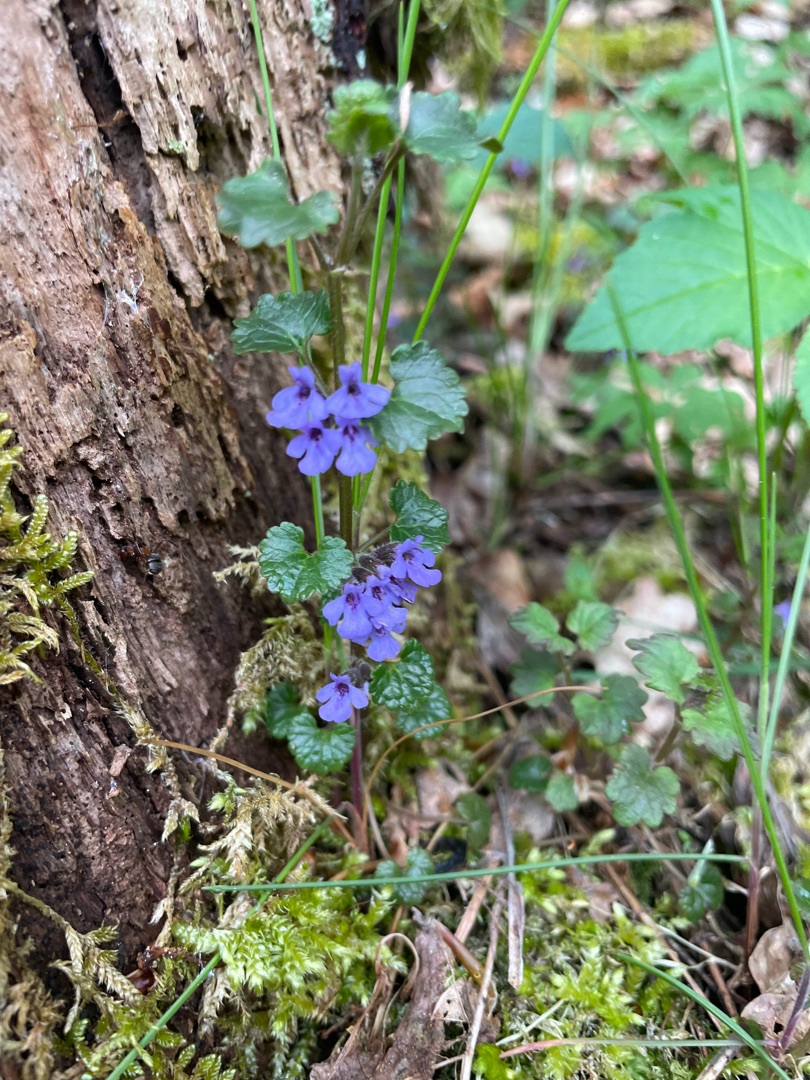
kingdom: Plantae
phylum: Tracheophyta
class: Magnoliopsida
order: Lamiales
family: Lamiaceae
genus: Glechoma
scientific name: Glechoma hederacea
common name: Korsknap
